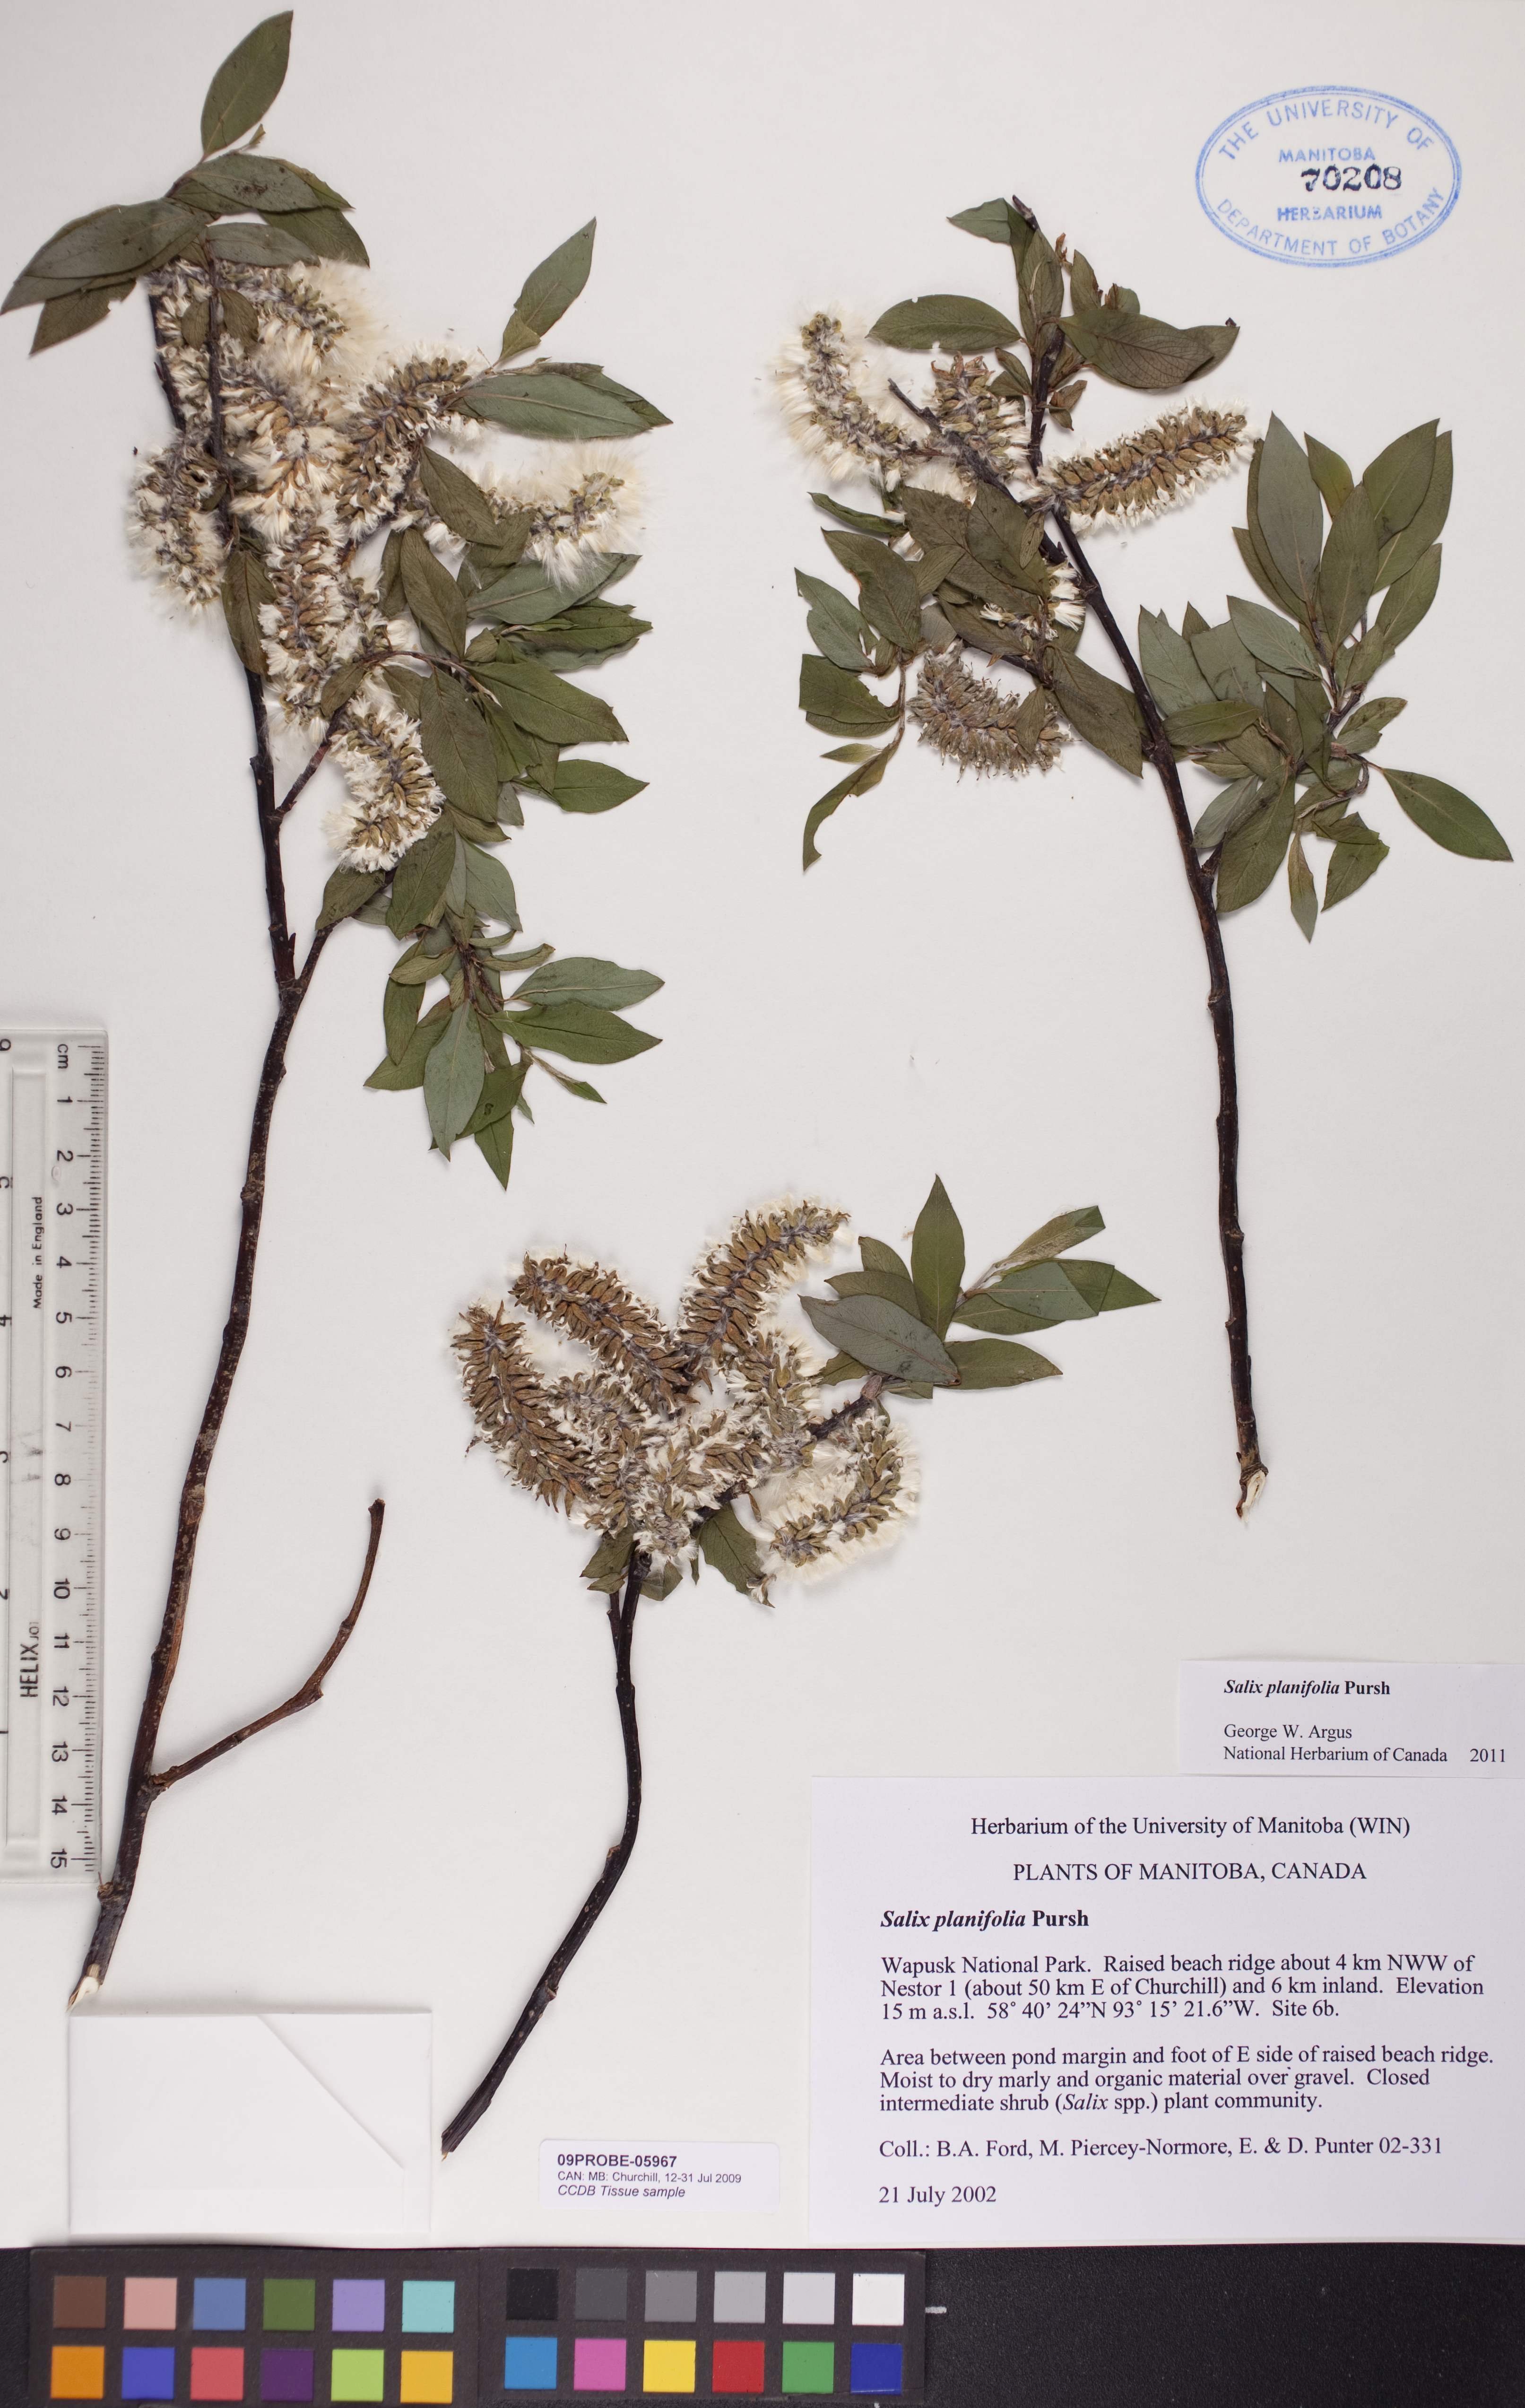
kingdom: Plantae
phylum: Tracheophyta
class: Magnoliopsida
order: Malpighiales
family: Salicaceae
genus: Salix
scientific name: Salix planifolia
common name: Mountain willow
